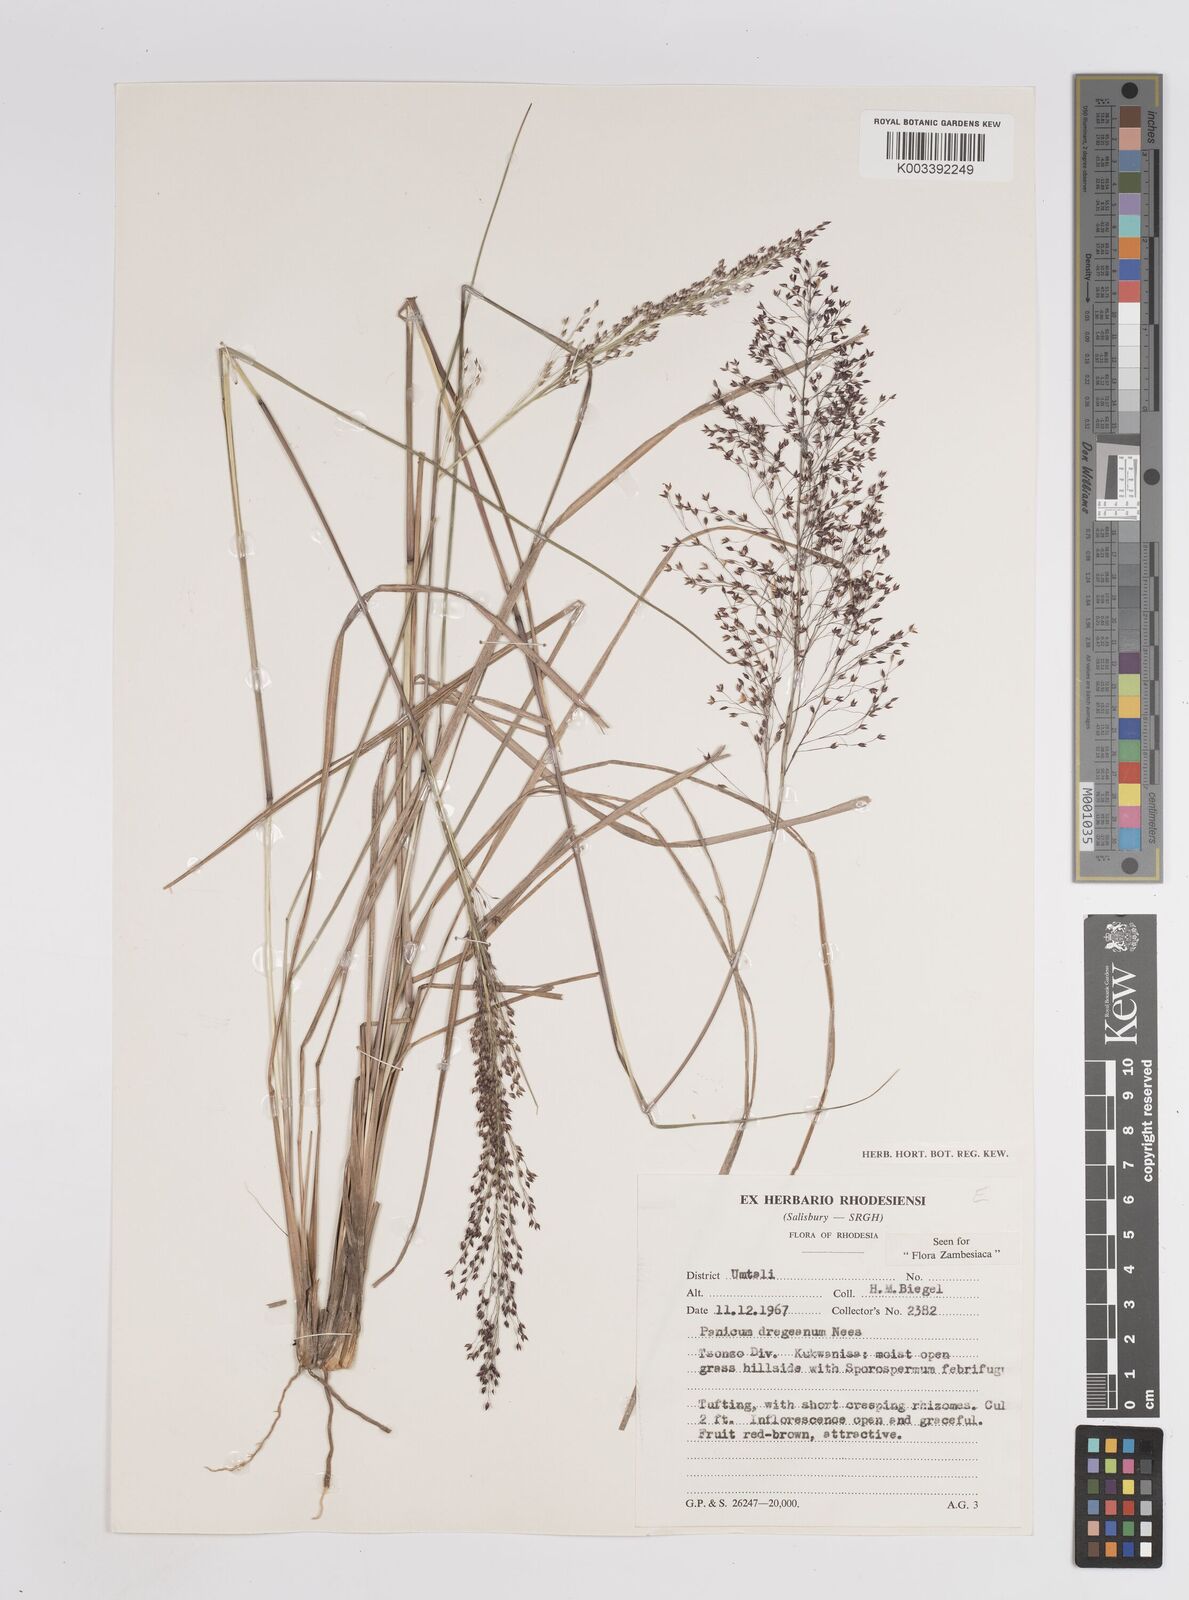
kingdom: Plantae
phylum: Tracheophyta
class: Liliopsida
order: Poales
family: Poaceae
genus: Panicum
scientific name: Panicum dregeanum
